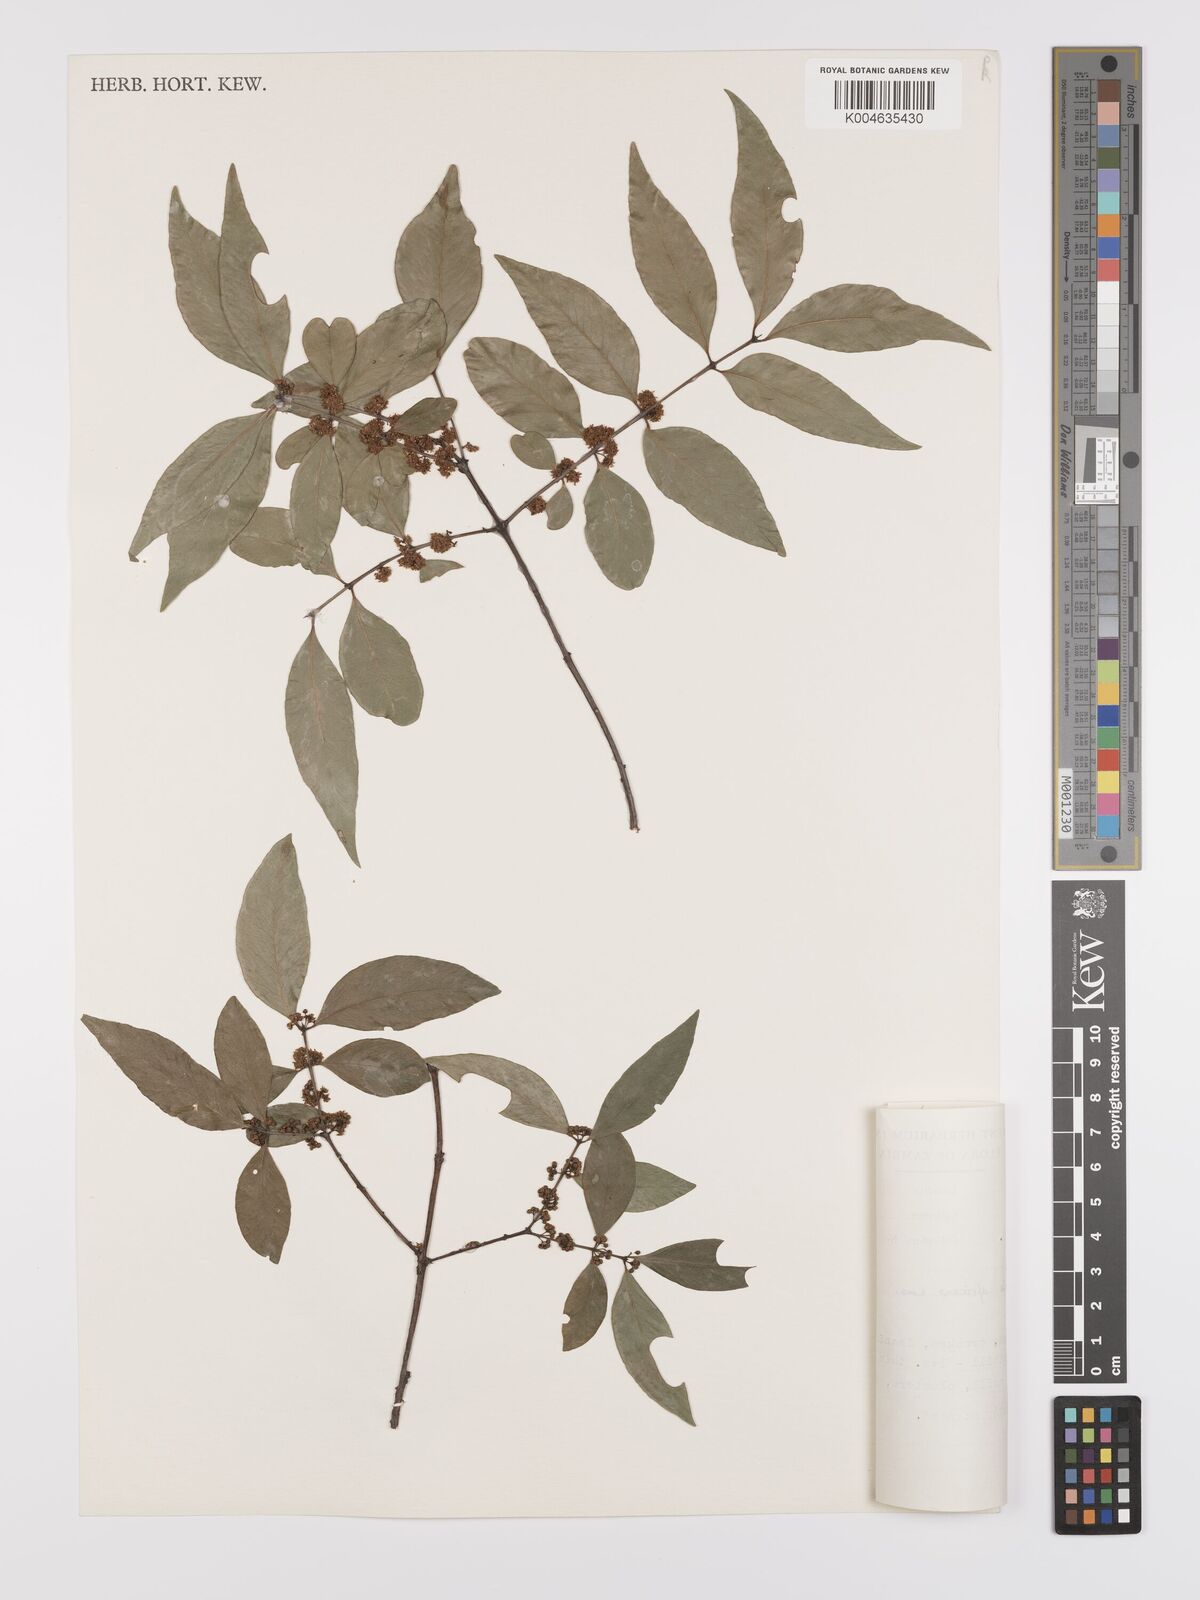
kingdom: Plantae
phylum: Tracheophyta
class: Magnoliopsida
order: Celastrales
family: Celastraceae
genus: Pleurostylia
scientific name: Pleurostylia africana
